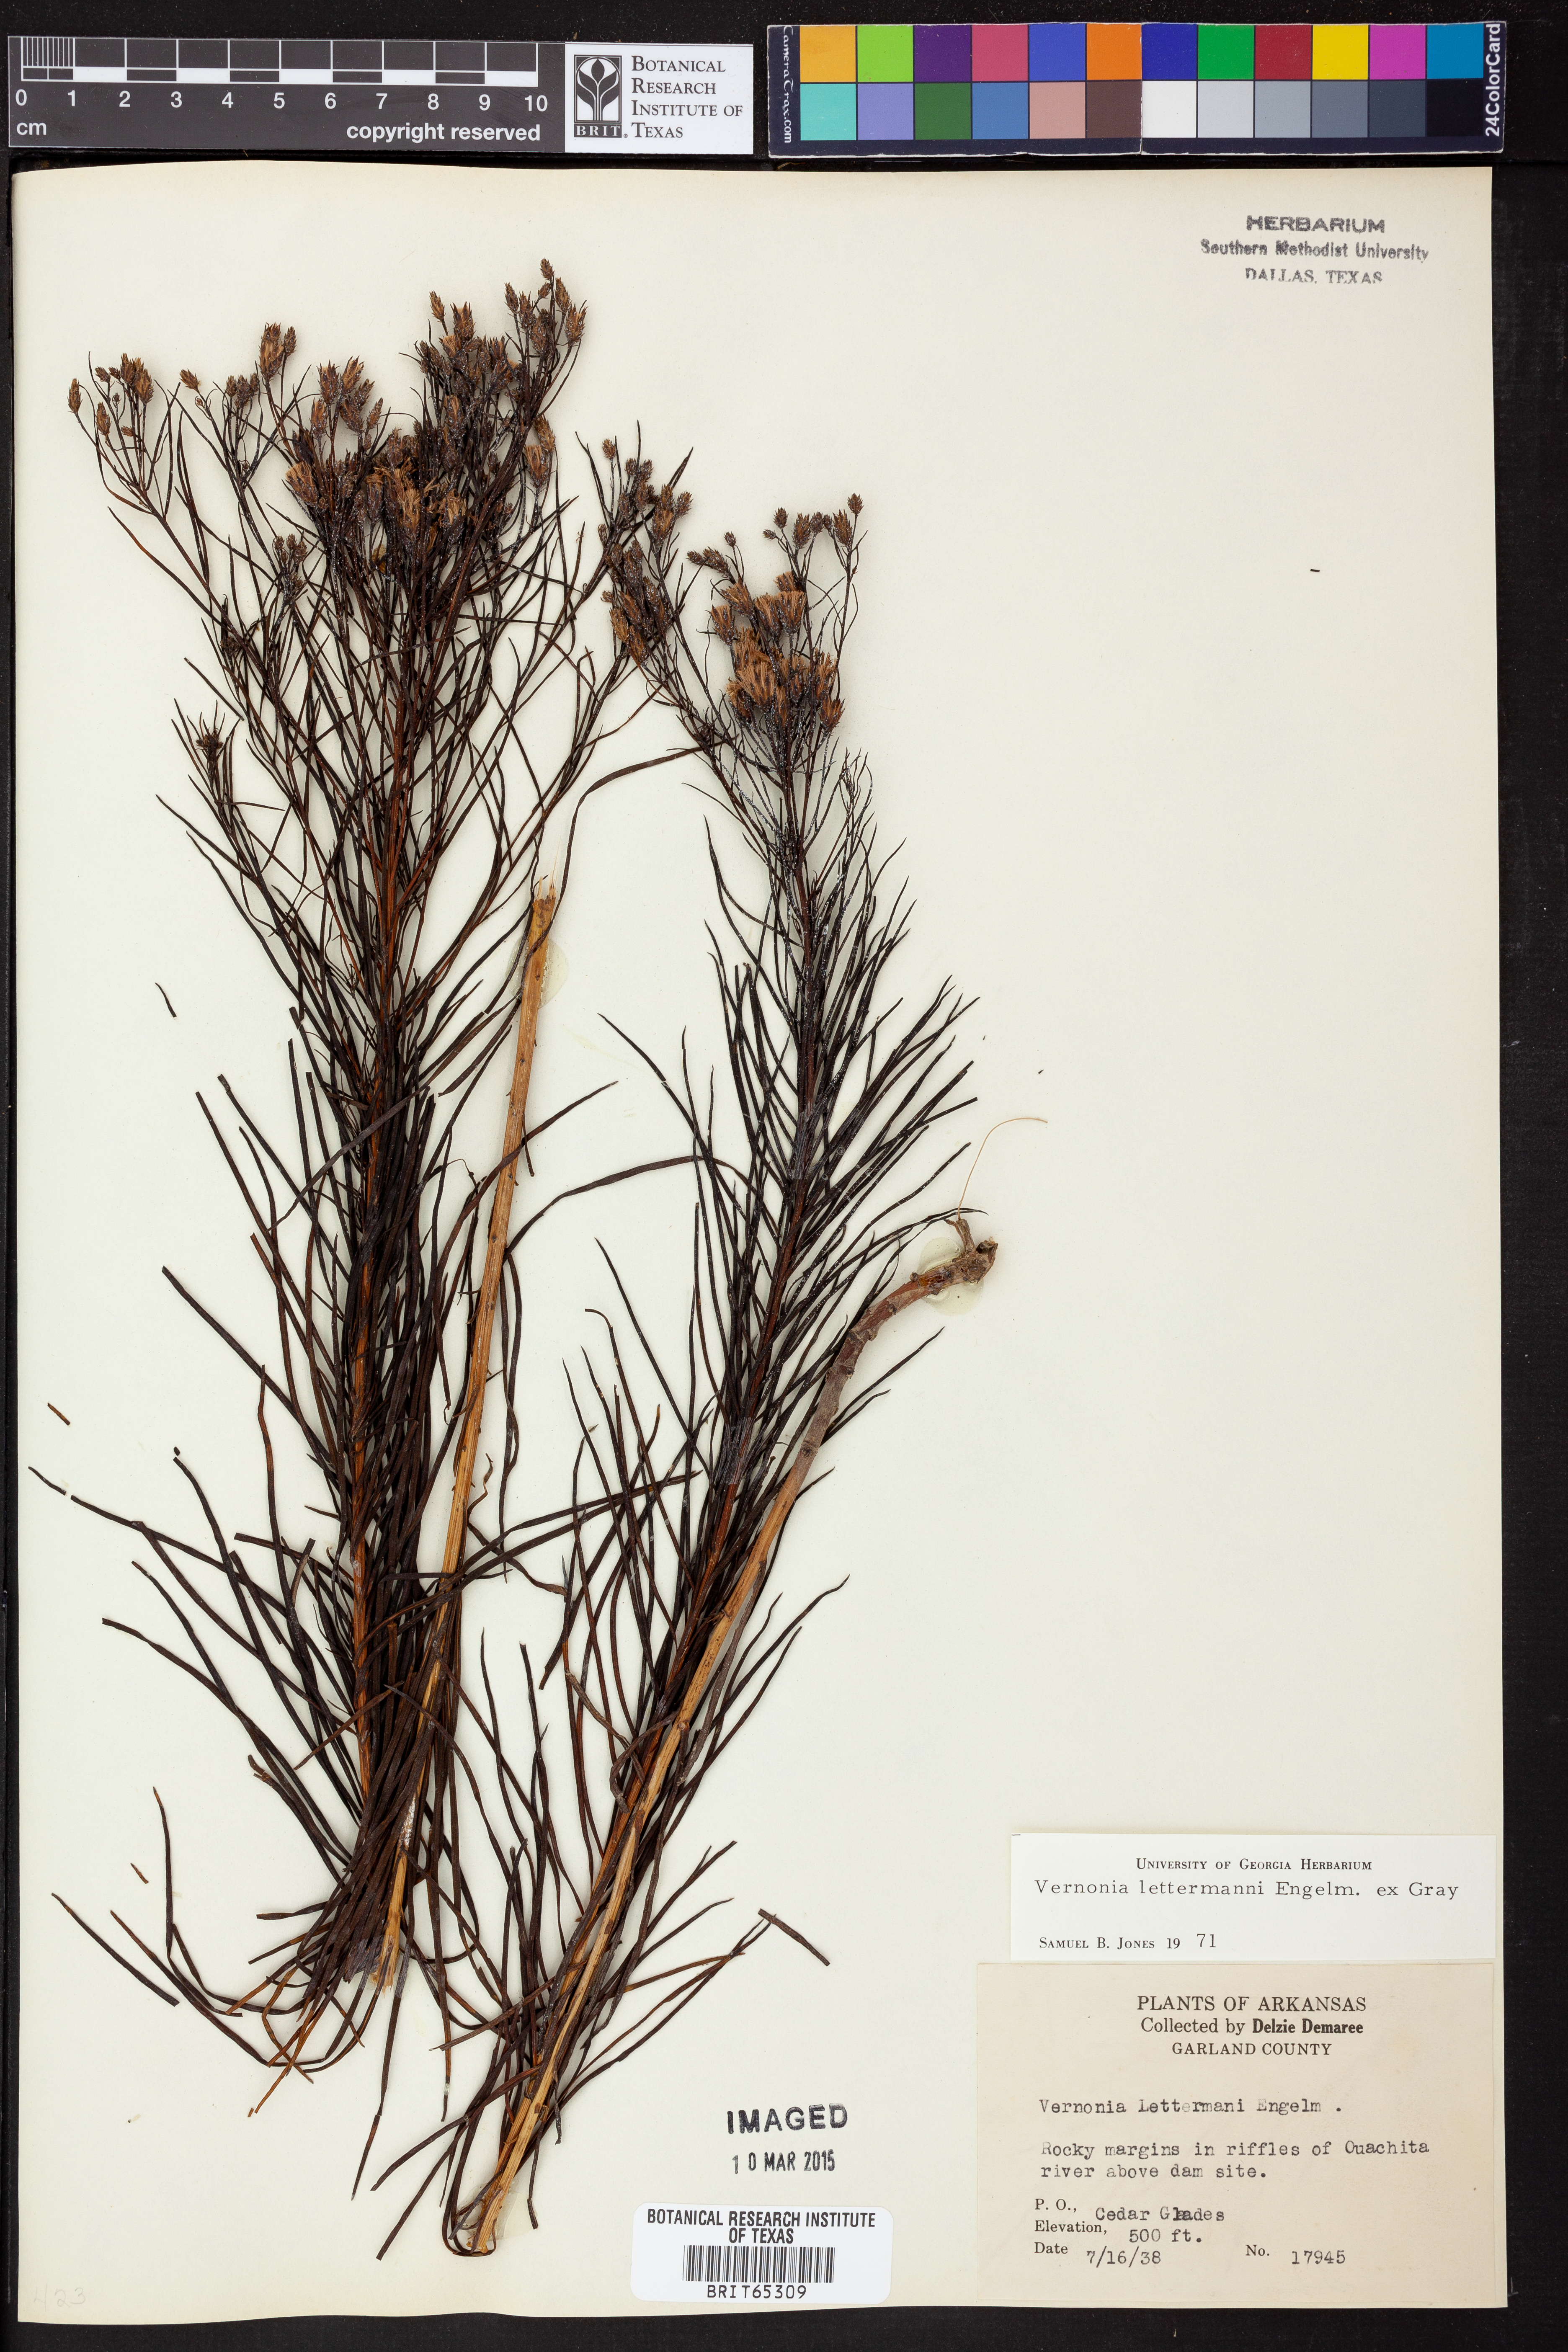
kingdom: Plantae
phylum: Tracheophyta
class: Magnoliopsida
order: Asterales
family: Asteraceae
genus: Vernonia
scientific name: Vernonia lettermannii
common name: Lettermann's ironweed
